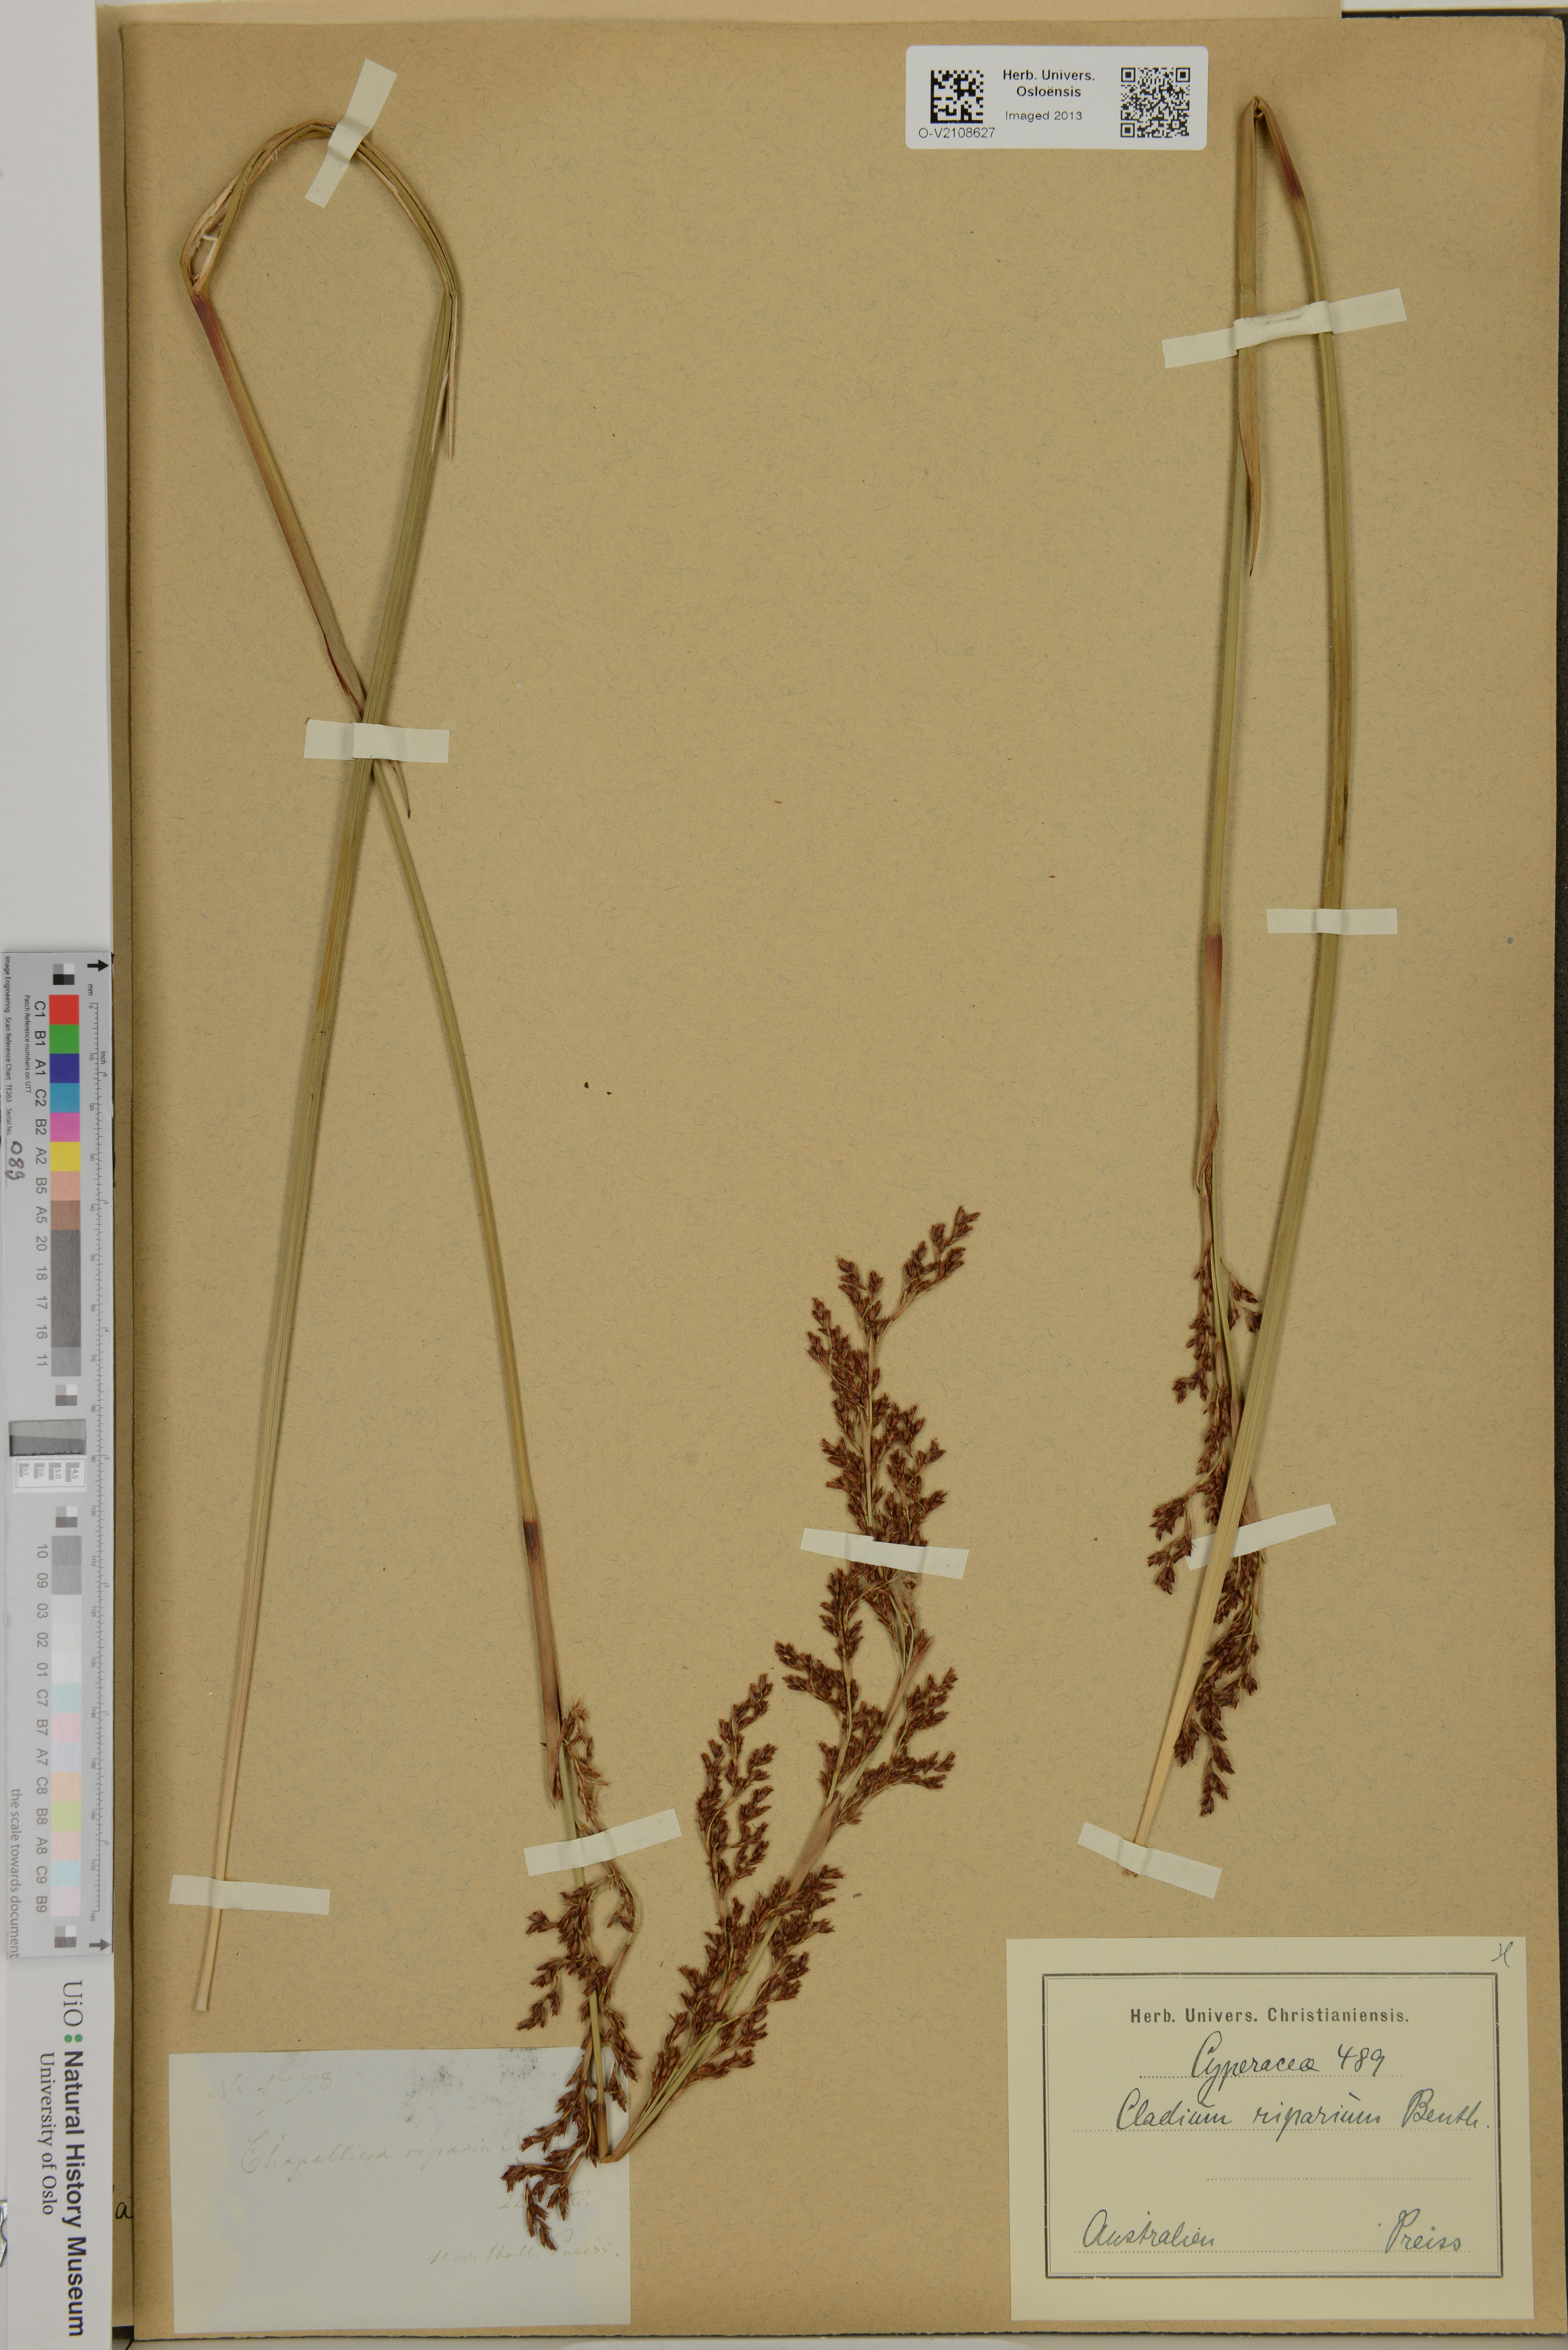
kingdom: Plantae
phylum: Tracheophyta
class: Liliopsida
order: Poales
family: Cyperaceae
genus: Machaerina
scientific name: Machaerina rubiginosa
